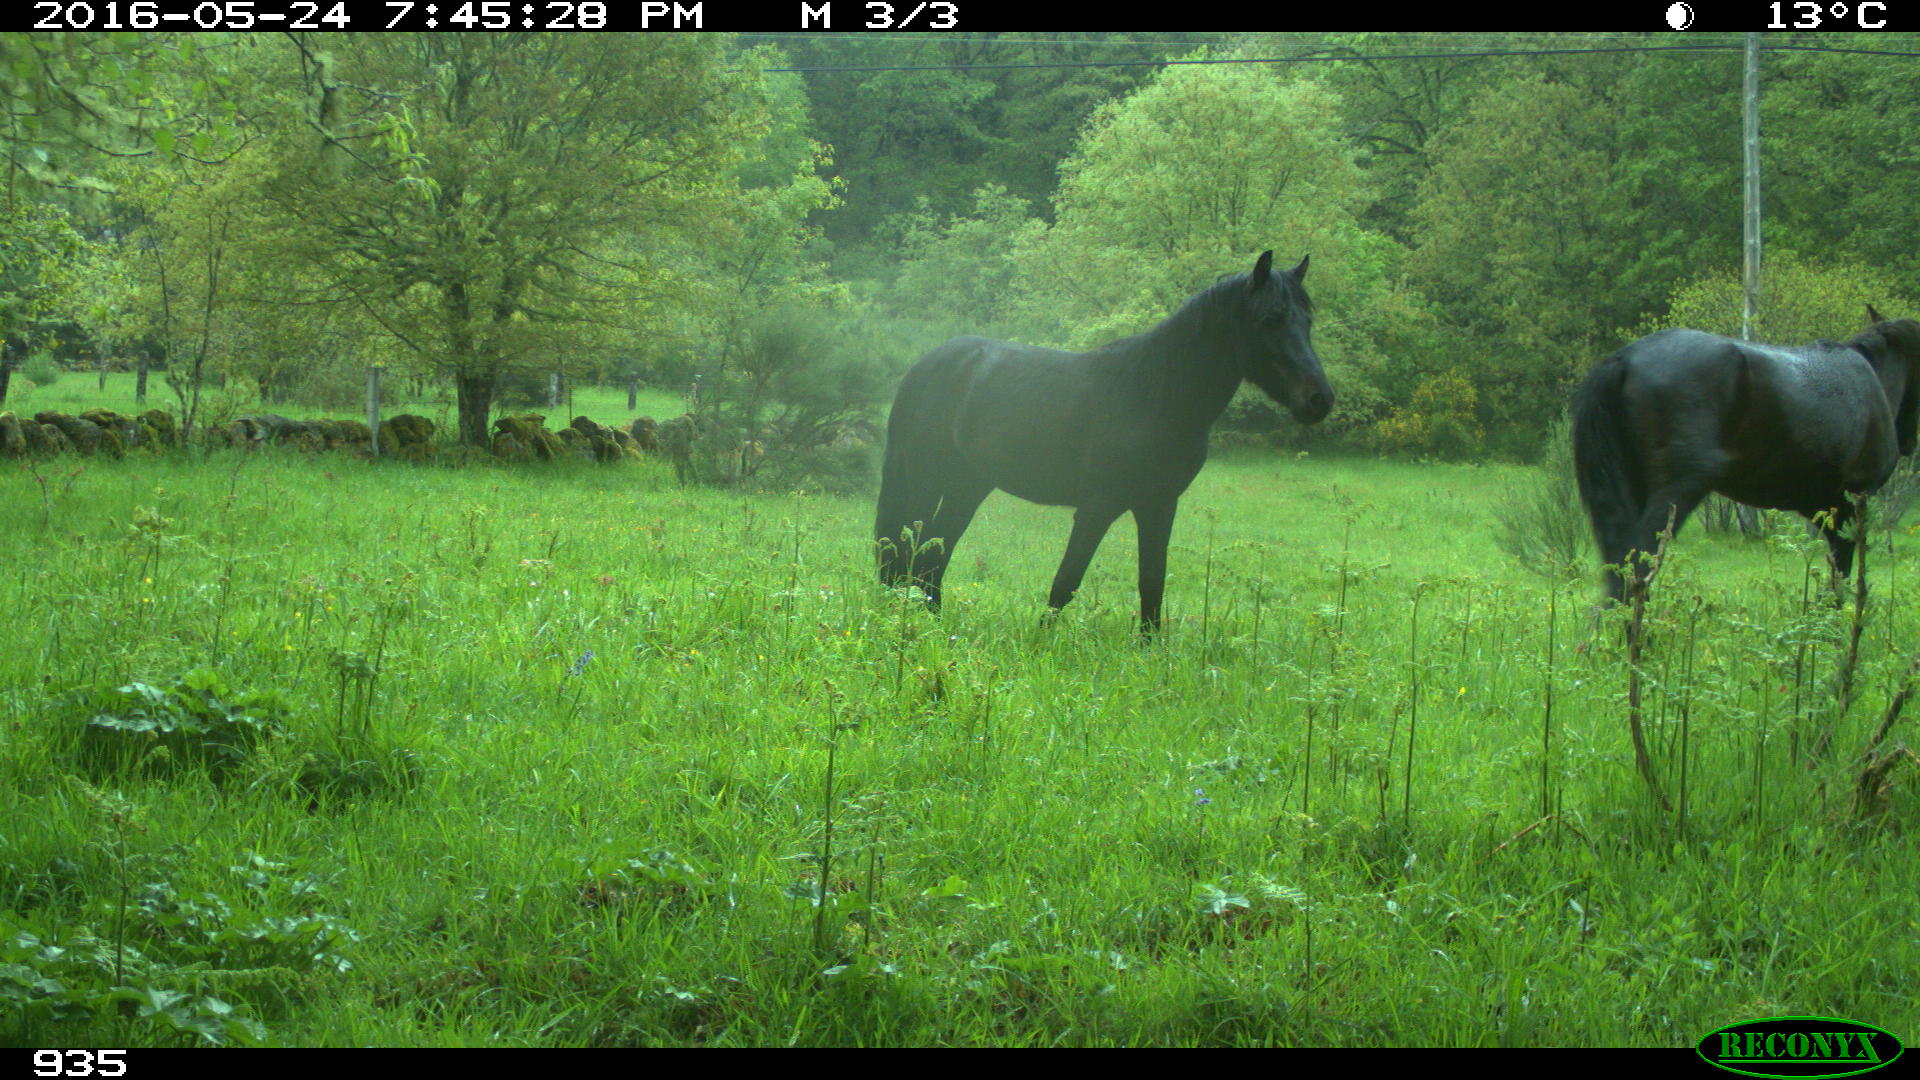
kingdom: Animalia
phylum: Chordata
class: Mammalia
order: Perissodactyla
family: Equidae
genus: Equus
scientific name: Equus caballus
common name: Horse
